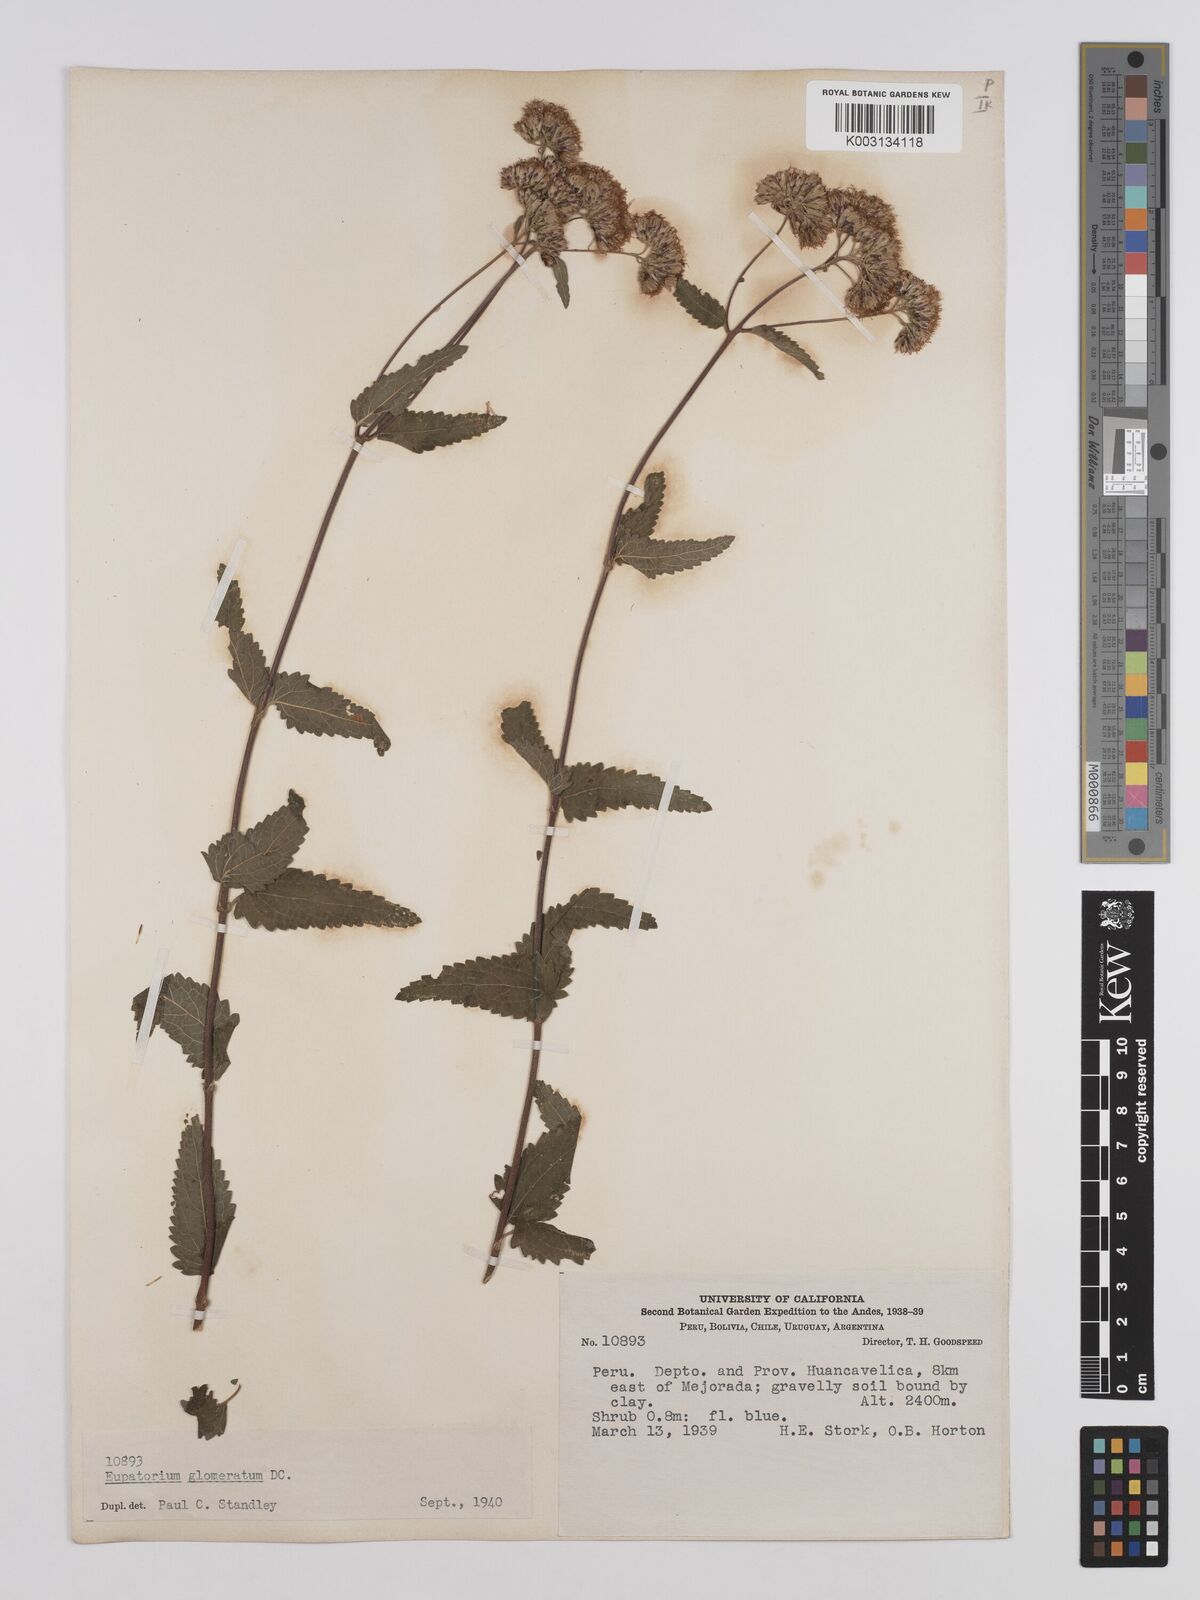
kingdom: Plantae
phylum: Tracheophyta
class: Magnoliopsida
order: Asterales
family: Asteraceae
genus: Cronquistianthus
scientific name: Cronquistianthus glomeratus
